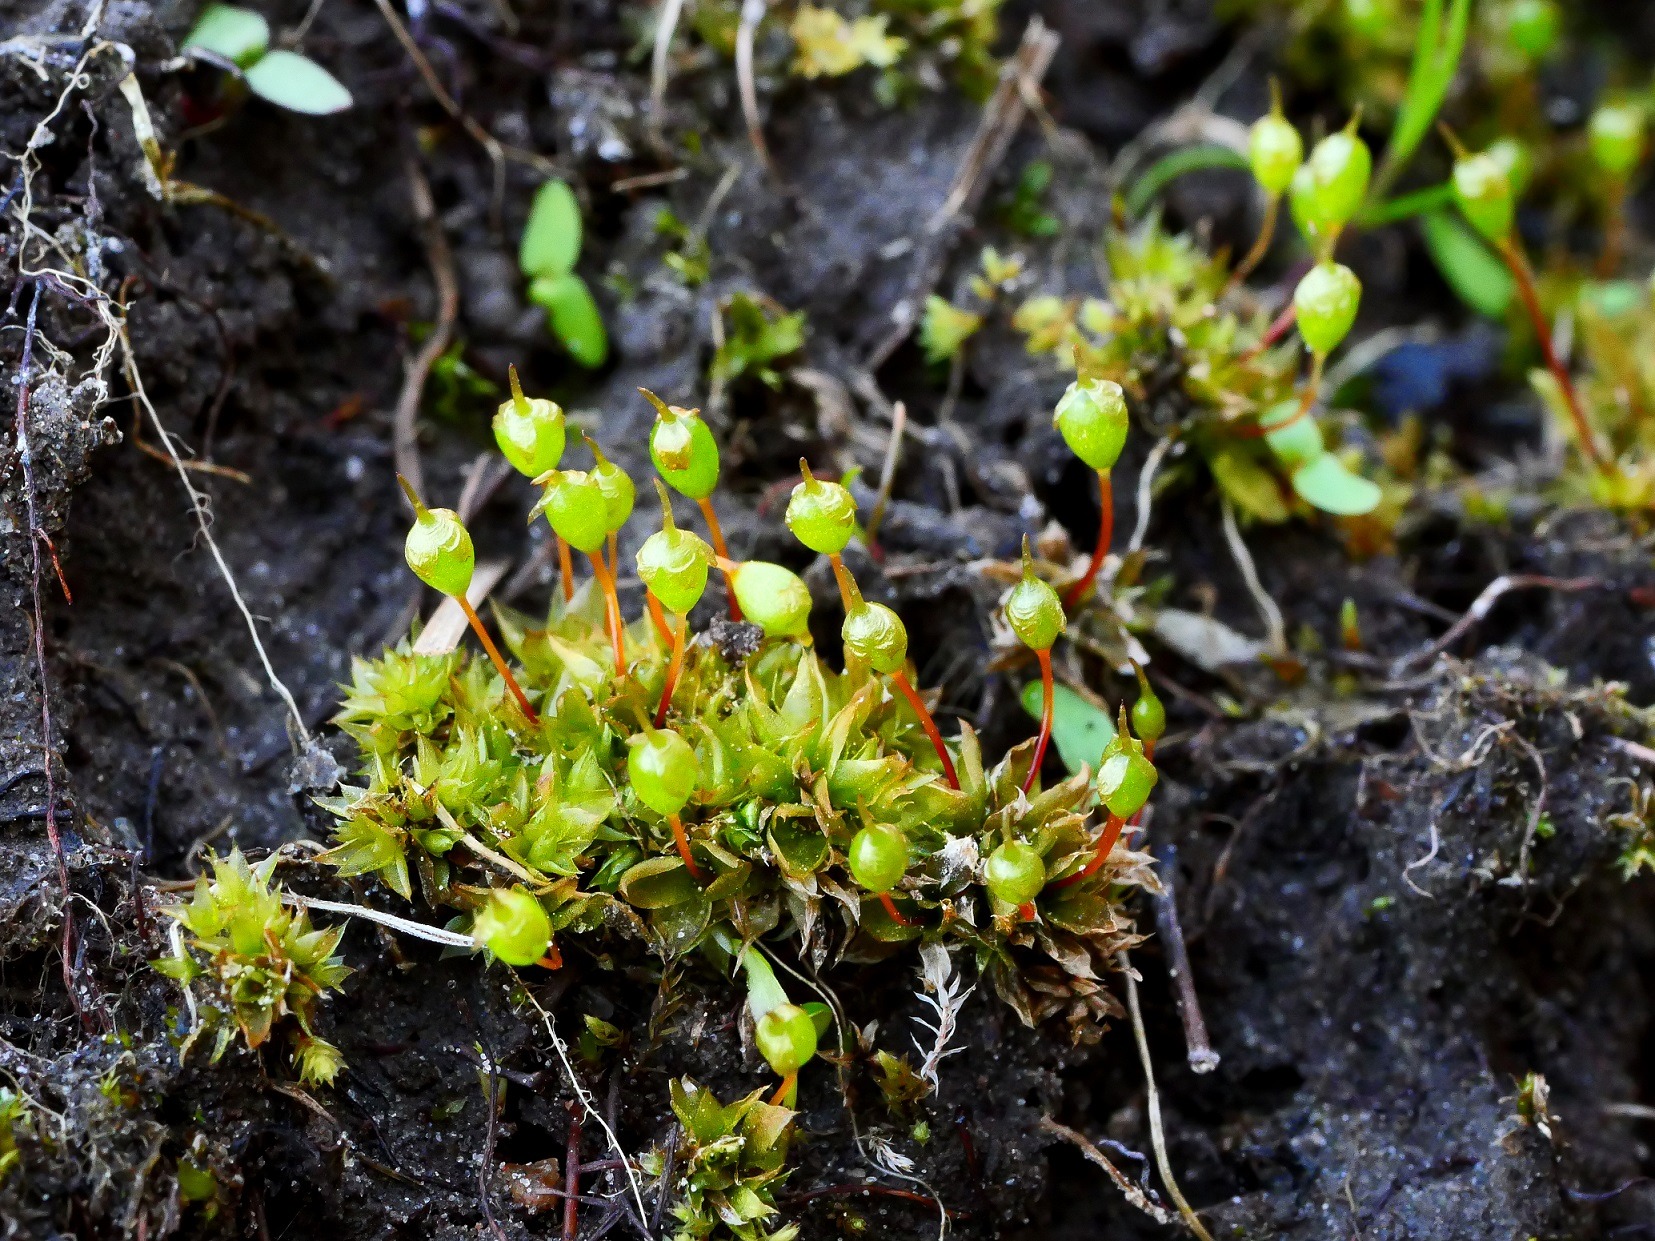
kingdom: Plantae
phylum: Bryophyta
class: Bryopsida
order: Funariales
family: Funariaceae
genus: Physcomitrium
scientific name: Physcomitrium pyriforme
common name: Almindelig pærekapsel
